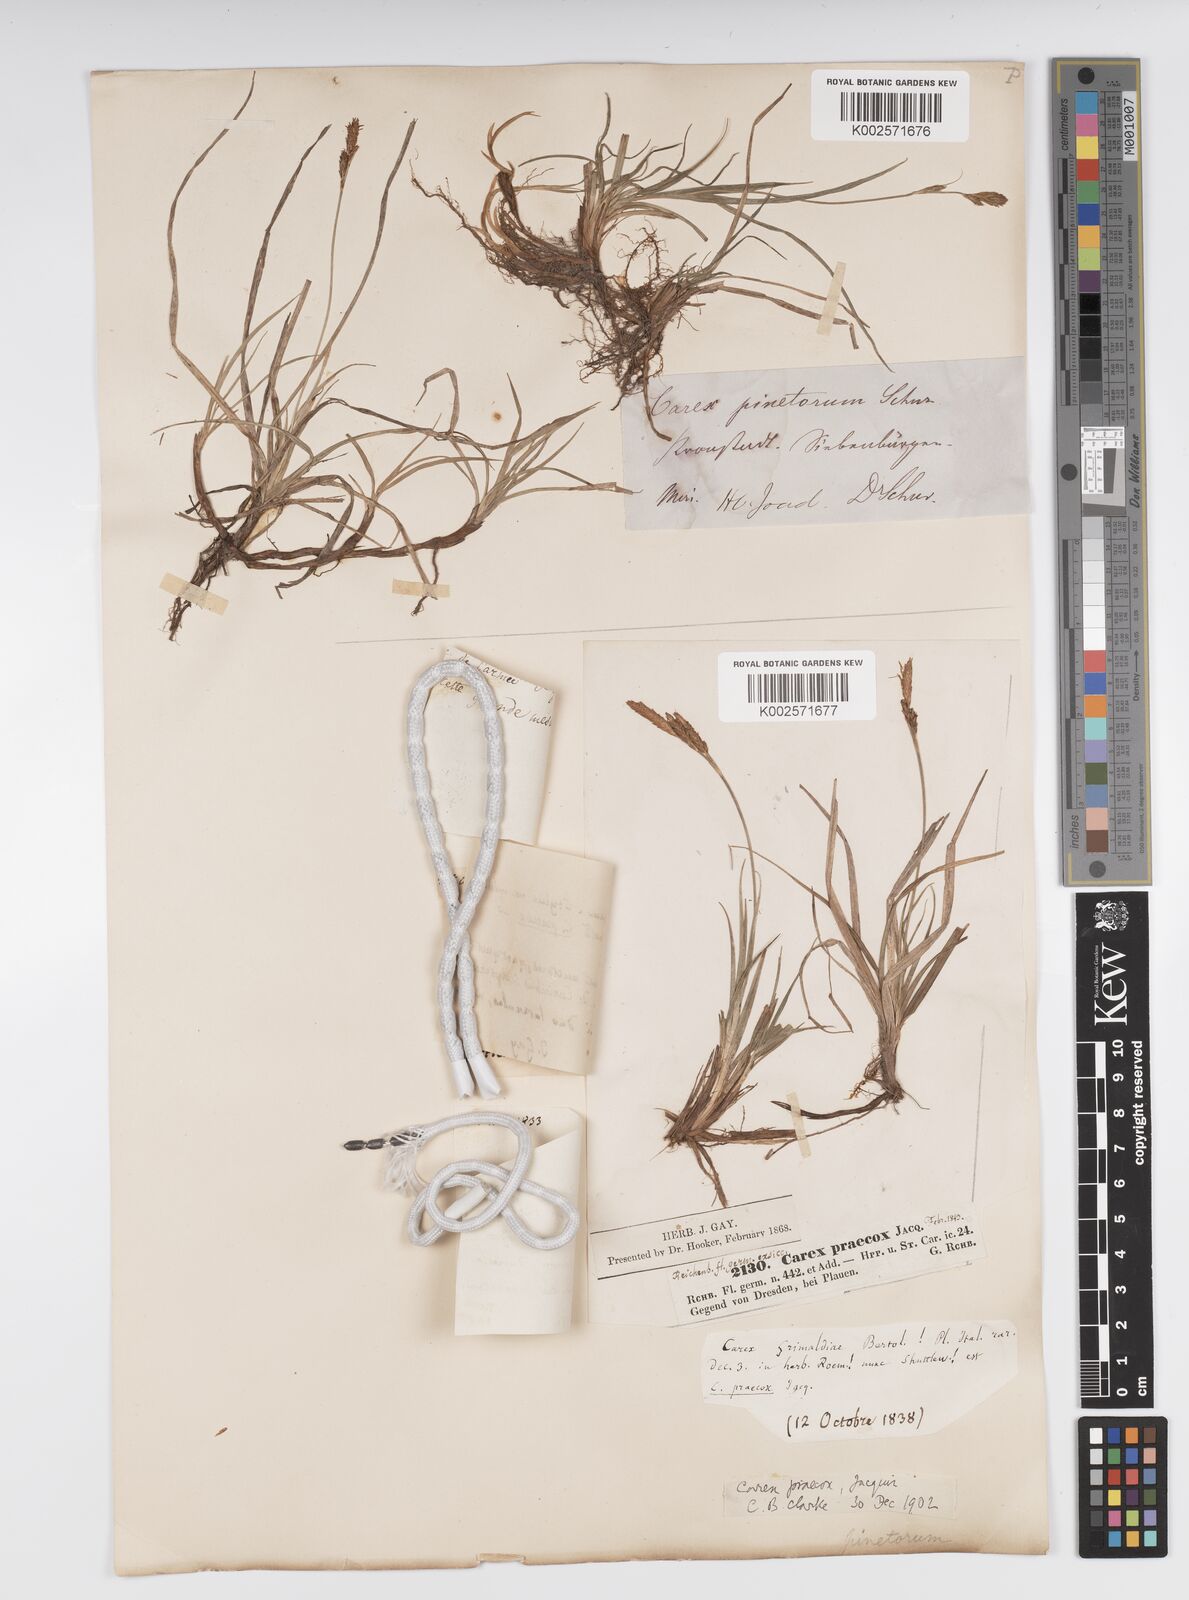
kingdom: Plantae
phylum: Tracheophyta
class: Liliopsida
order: Poales
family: Cyperaceae
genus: Carex
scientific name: Carex caryophyllea
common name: Spring sedge
